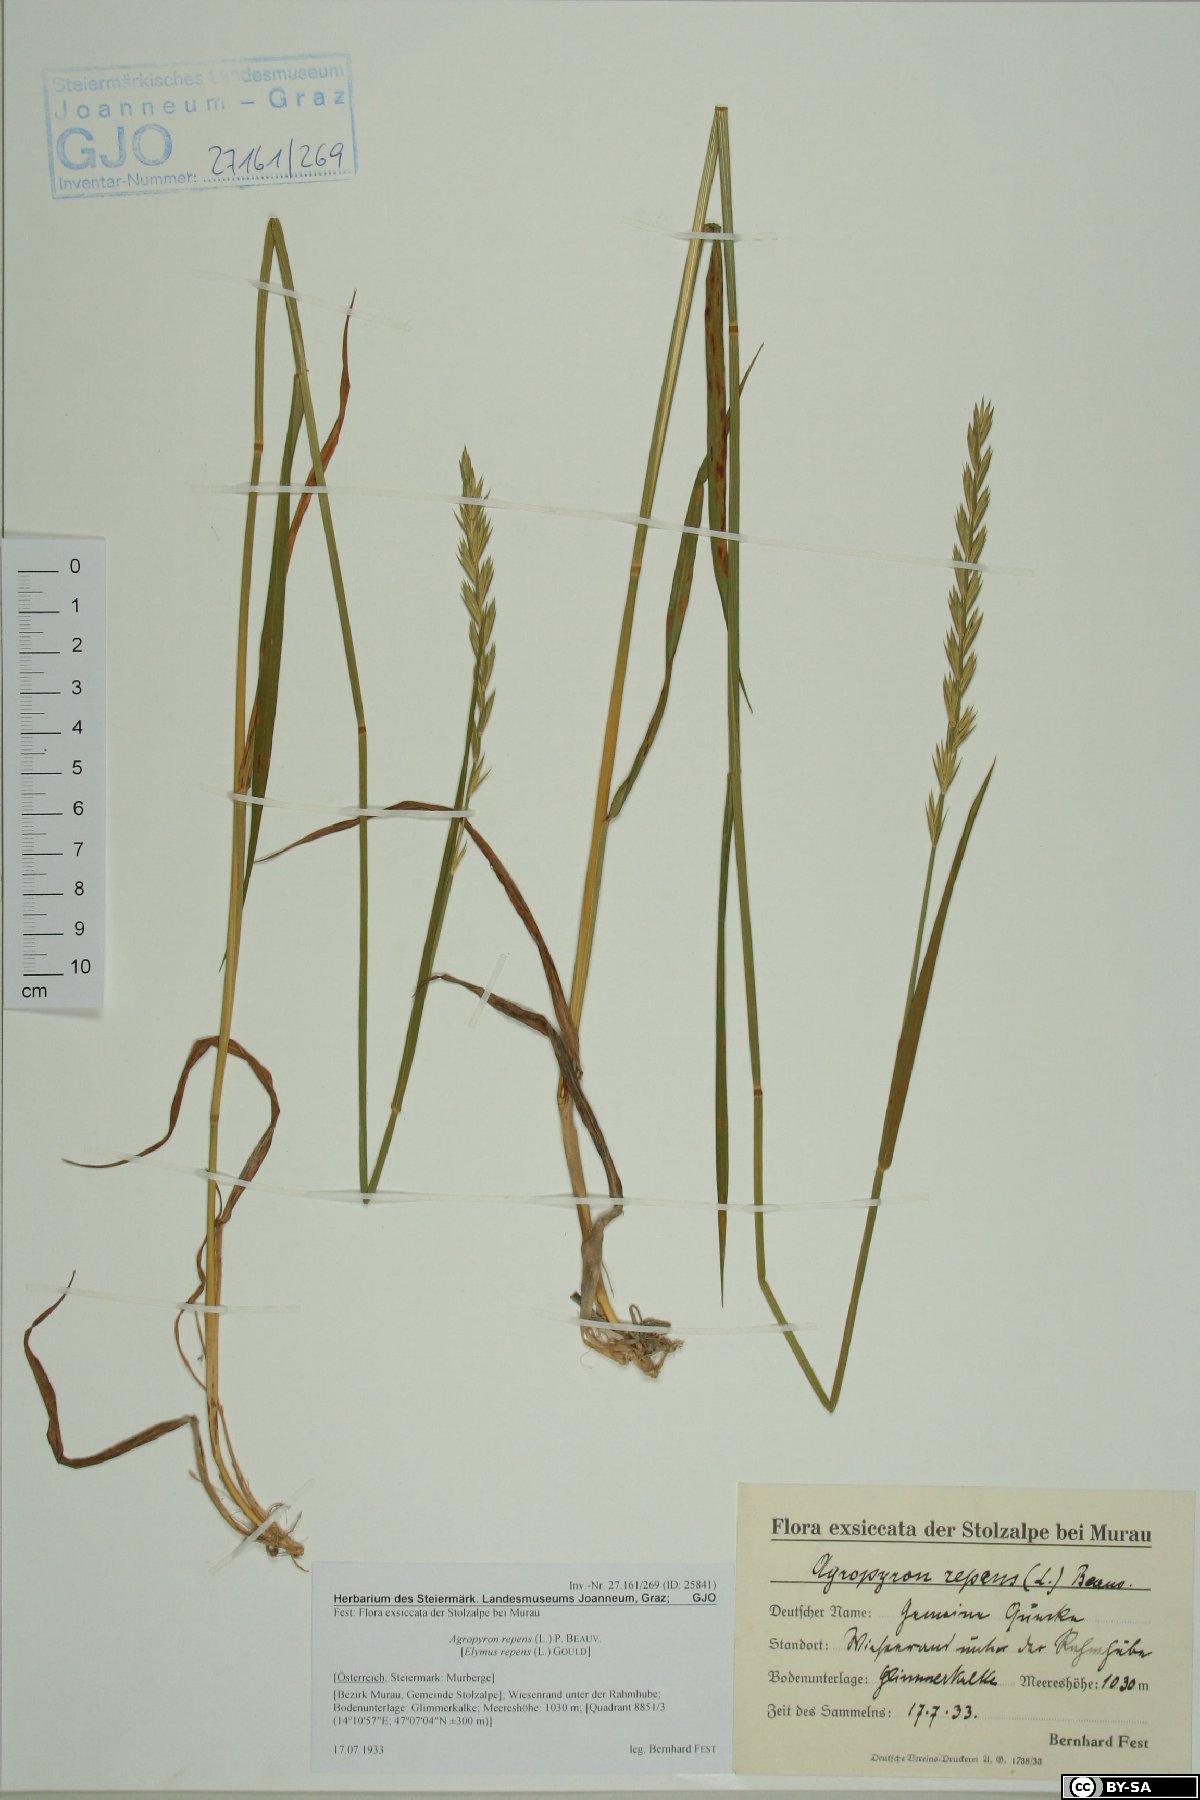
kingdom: Plantae
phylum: Tracheophyta
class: Liliopsida
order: Poales
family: Poaceae
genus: Elymus
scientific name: Elymus repens
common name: Quackgrass
